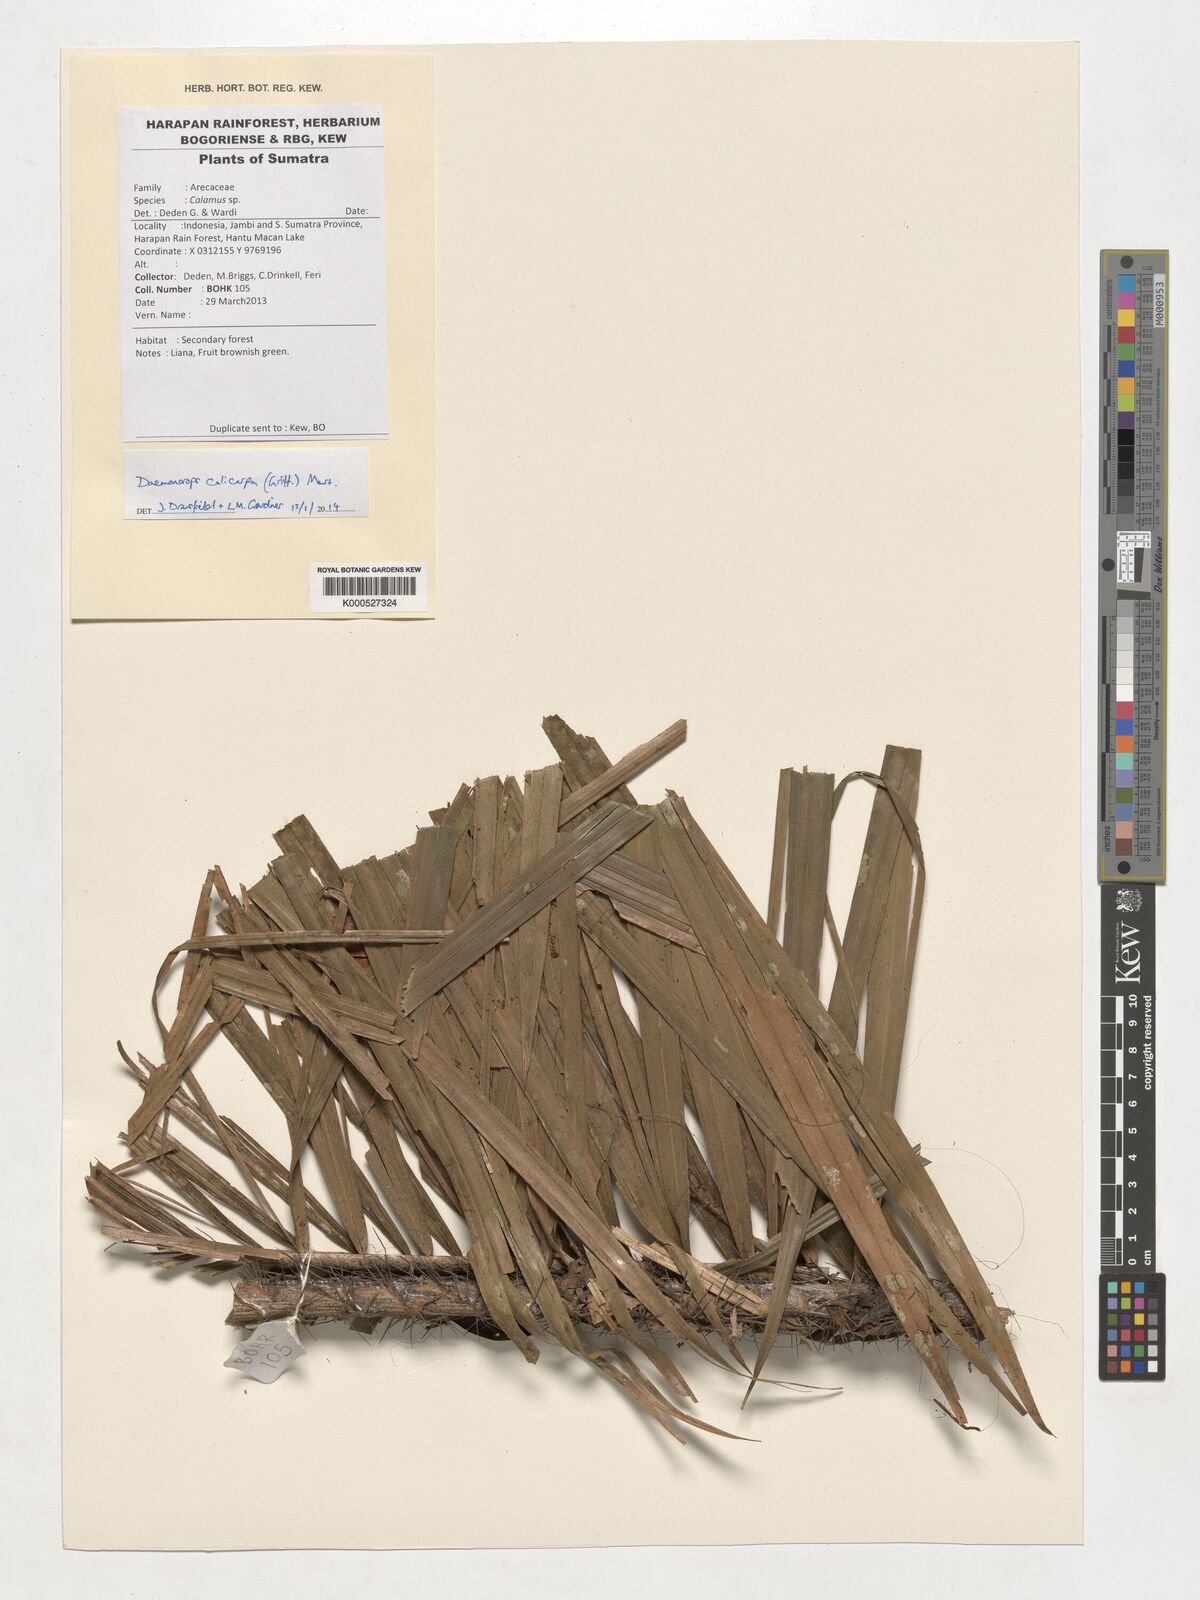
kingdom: Plantae
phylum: Tracheophyta
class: Liliopsida
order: Arecales
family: Arecaceae
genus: Calamus
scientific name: Calamus calicarpus
